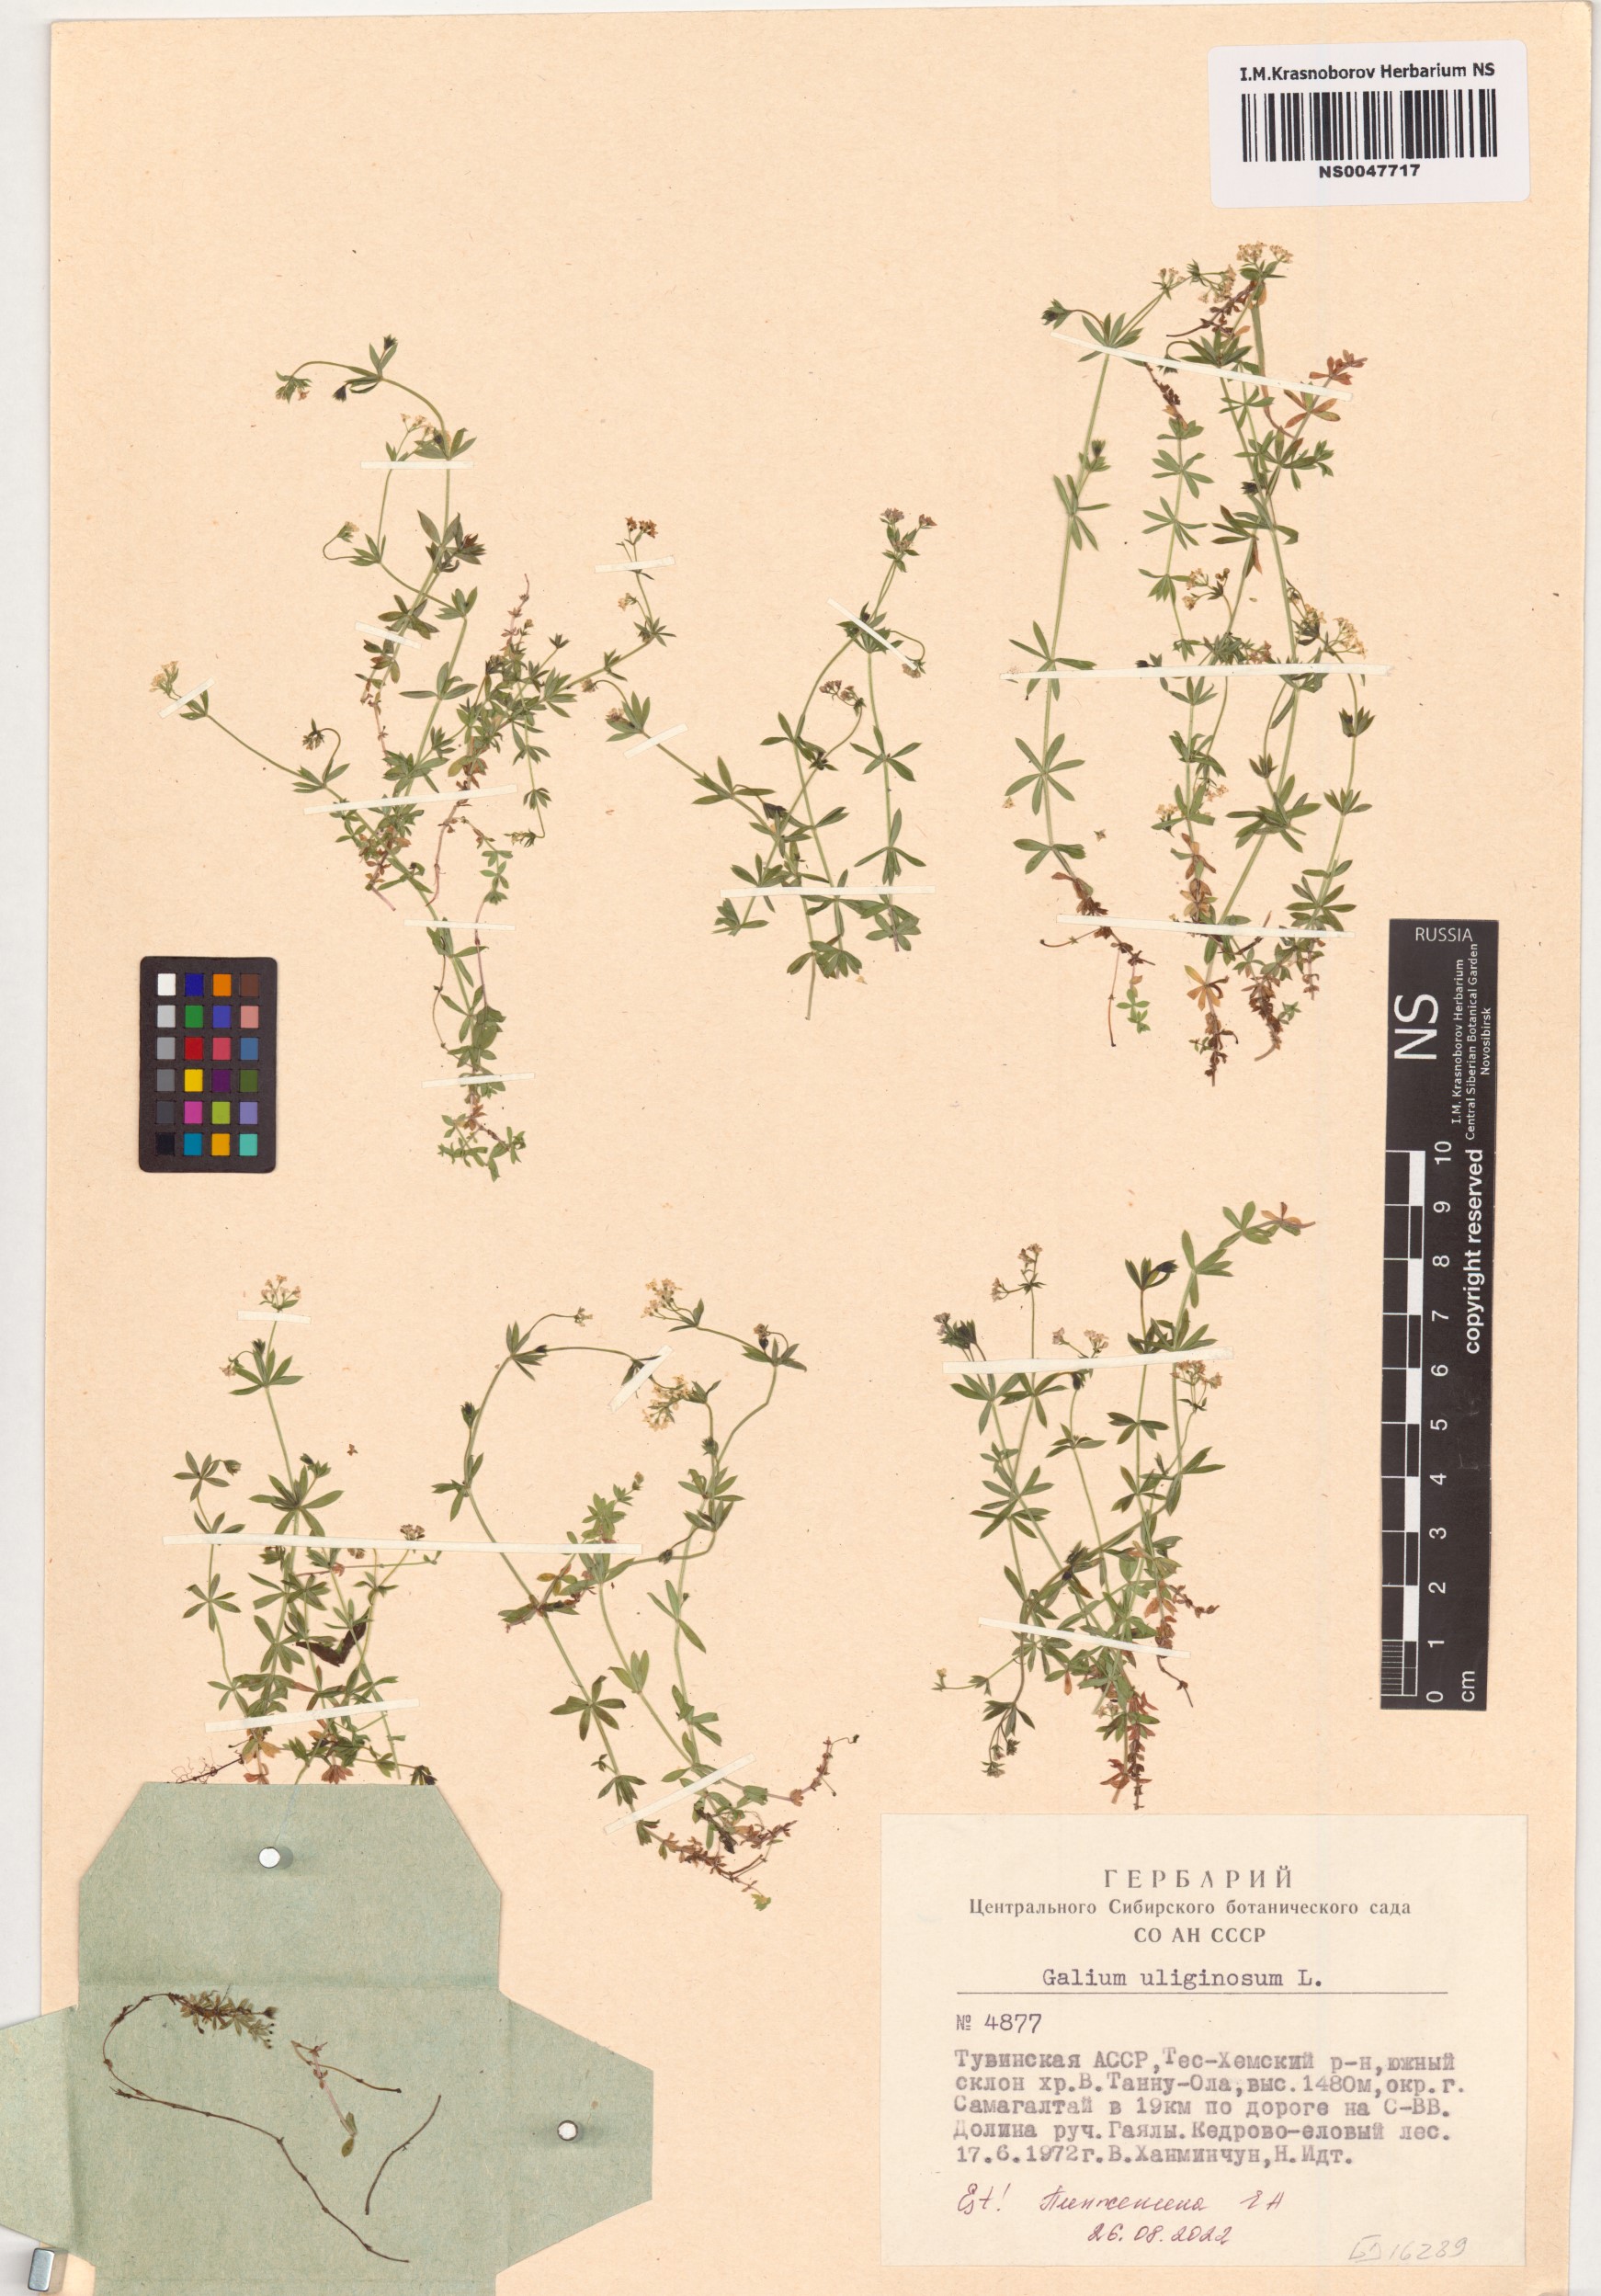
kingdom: Plantae
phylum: Tracheophyta
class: Magnoliopsida
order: Gentianales
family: Rubiaceae
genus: Galium
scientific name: Galium uliginosum
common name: Fen bedstraw
